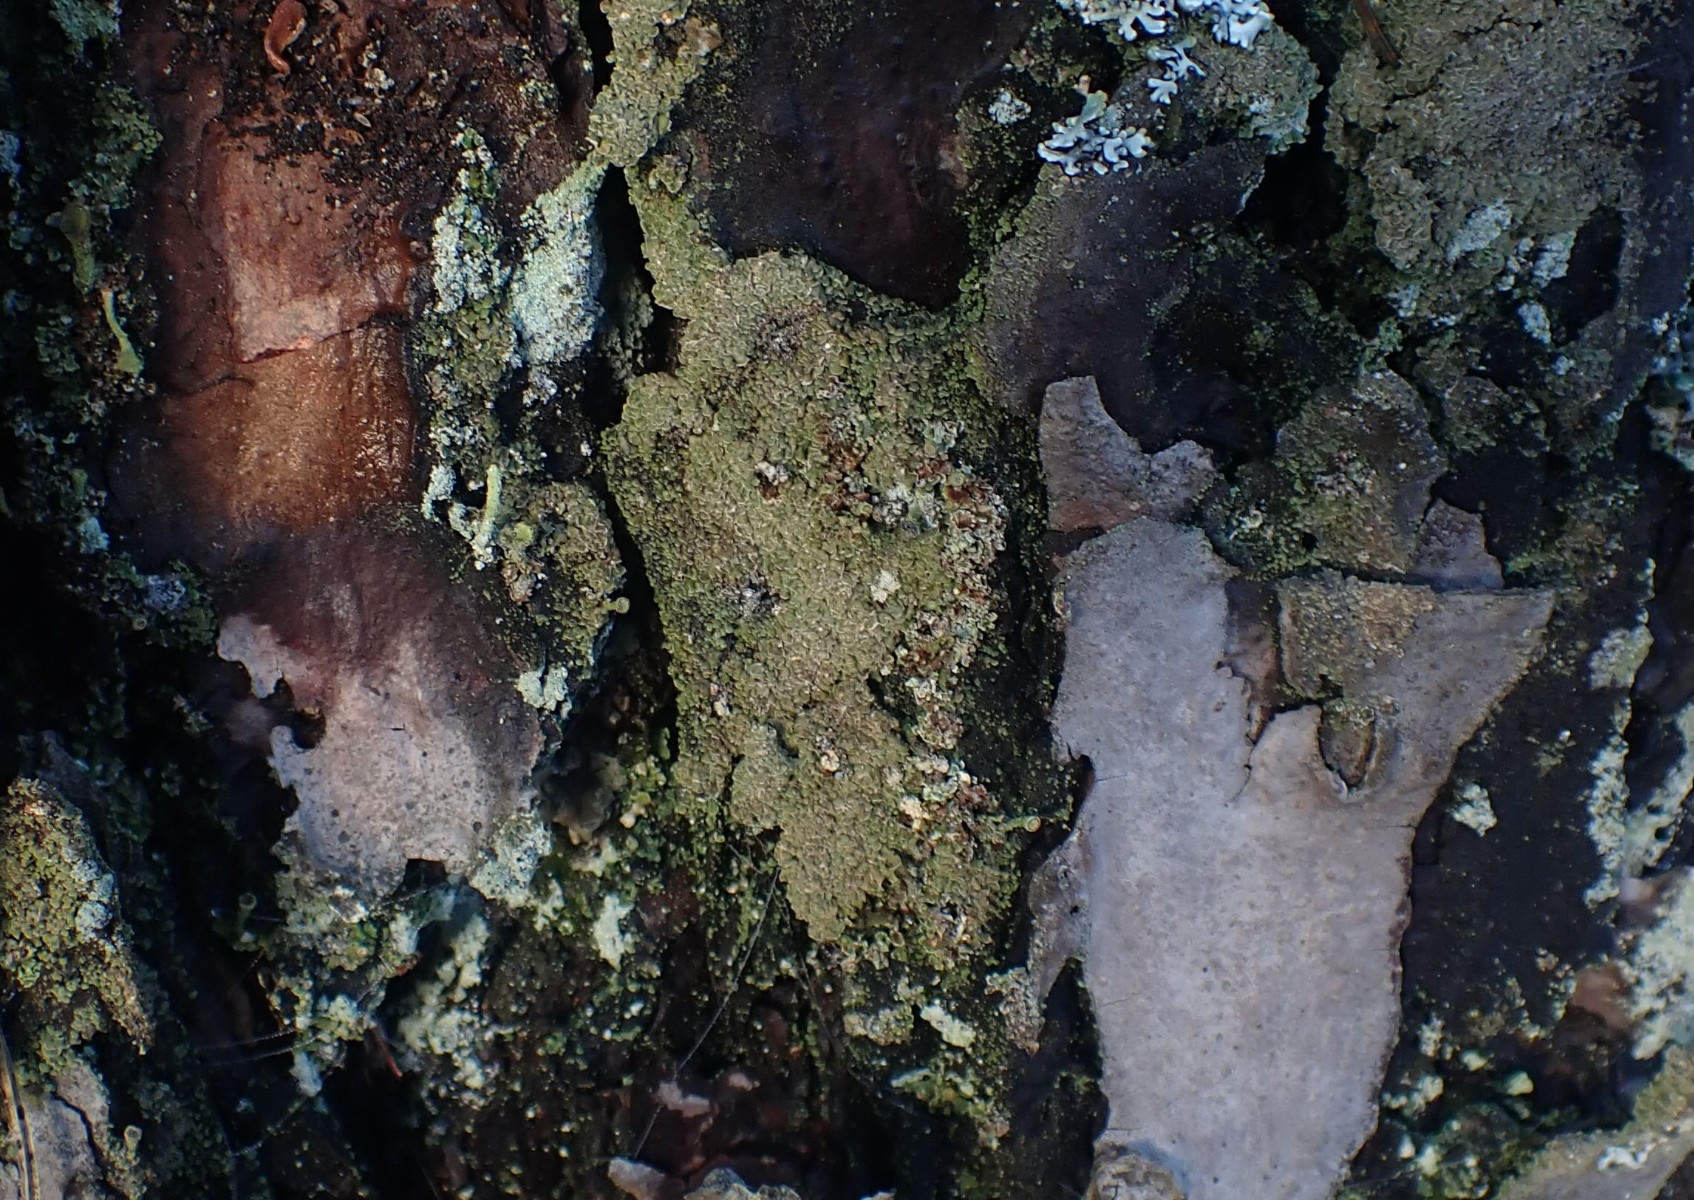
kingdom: Fungi
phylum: Ascomycota
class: Lecanoromycetes
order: Umbilicariales
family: Ophioparmaceae
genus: Hypocenomyce
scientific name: Hypocenomyce scalaris
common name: småskællet muslinglav
